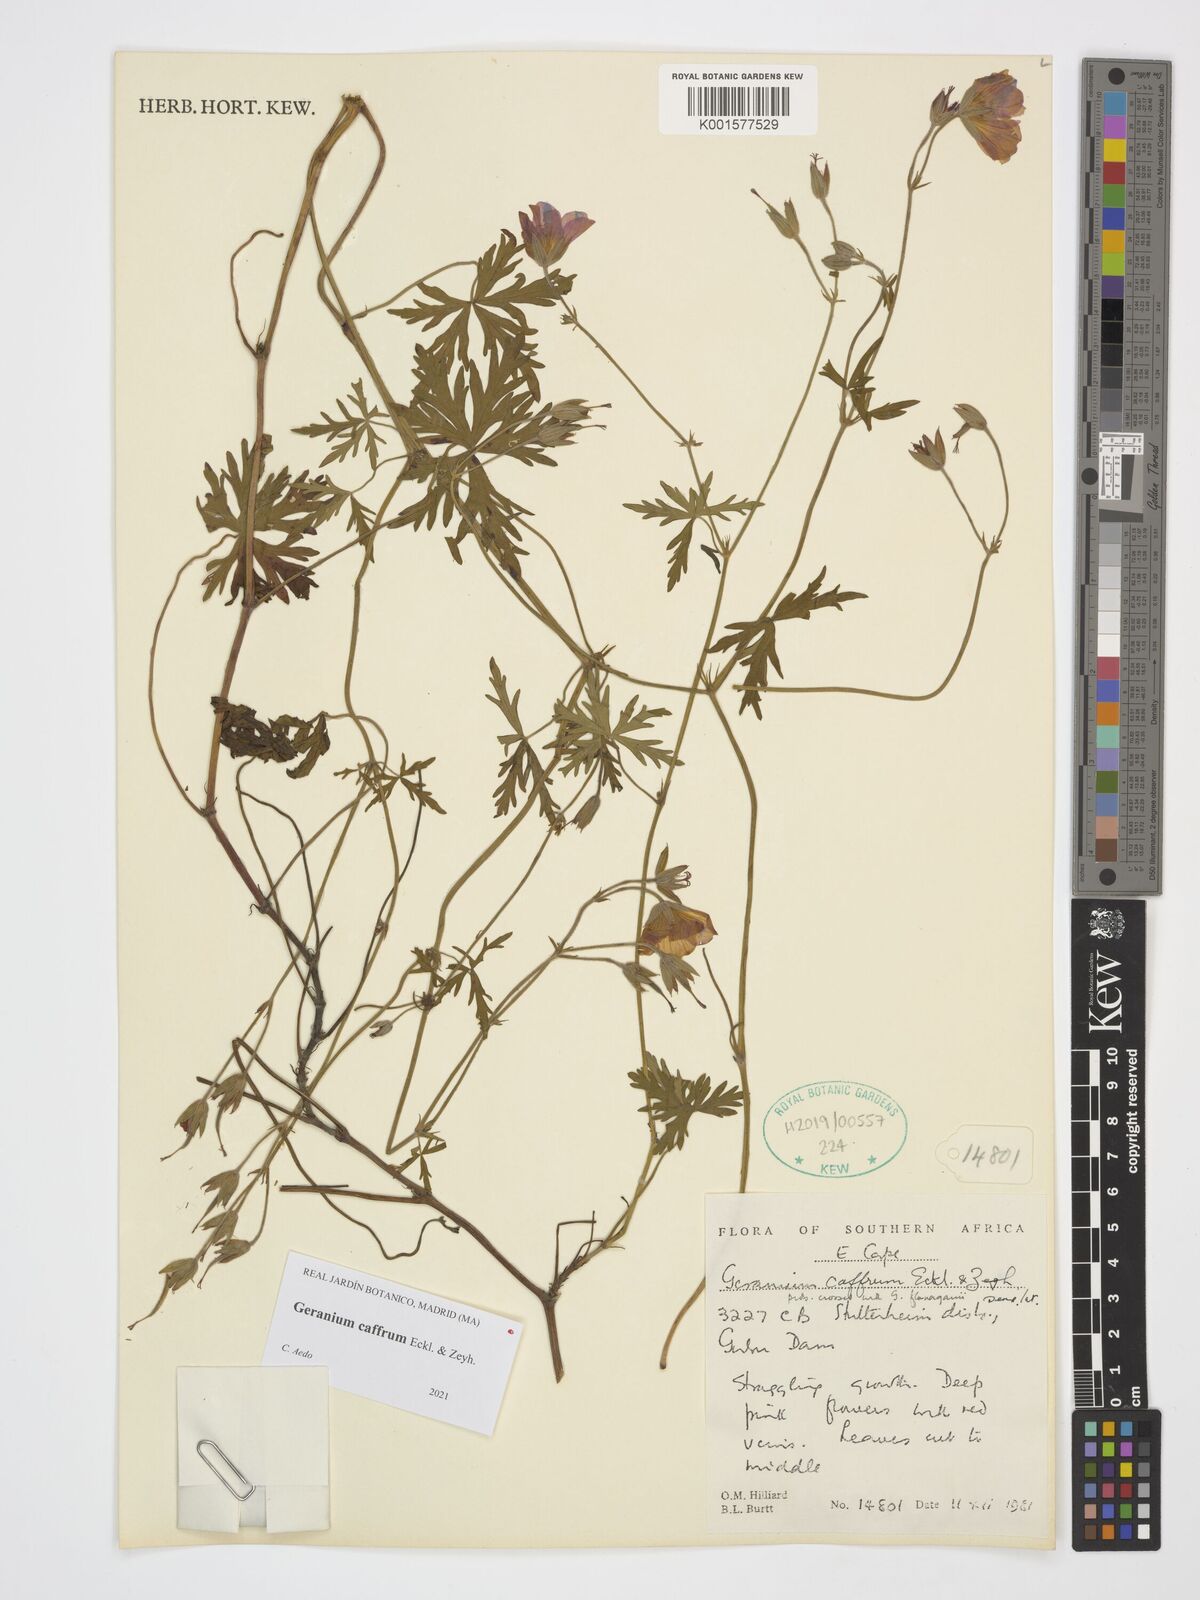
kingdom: Plantae
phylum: Tracheophyta
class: Magnoliopsida
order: Geraniales
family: Geraniaceae
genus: Geranium
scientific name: Geranium caffrum
